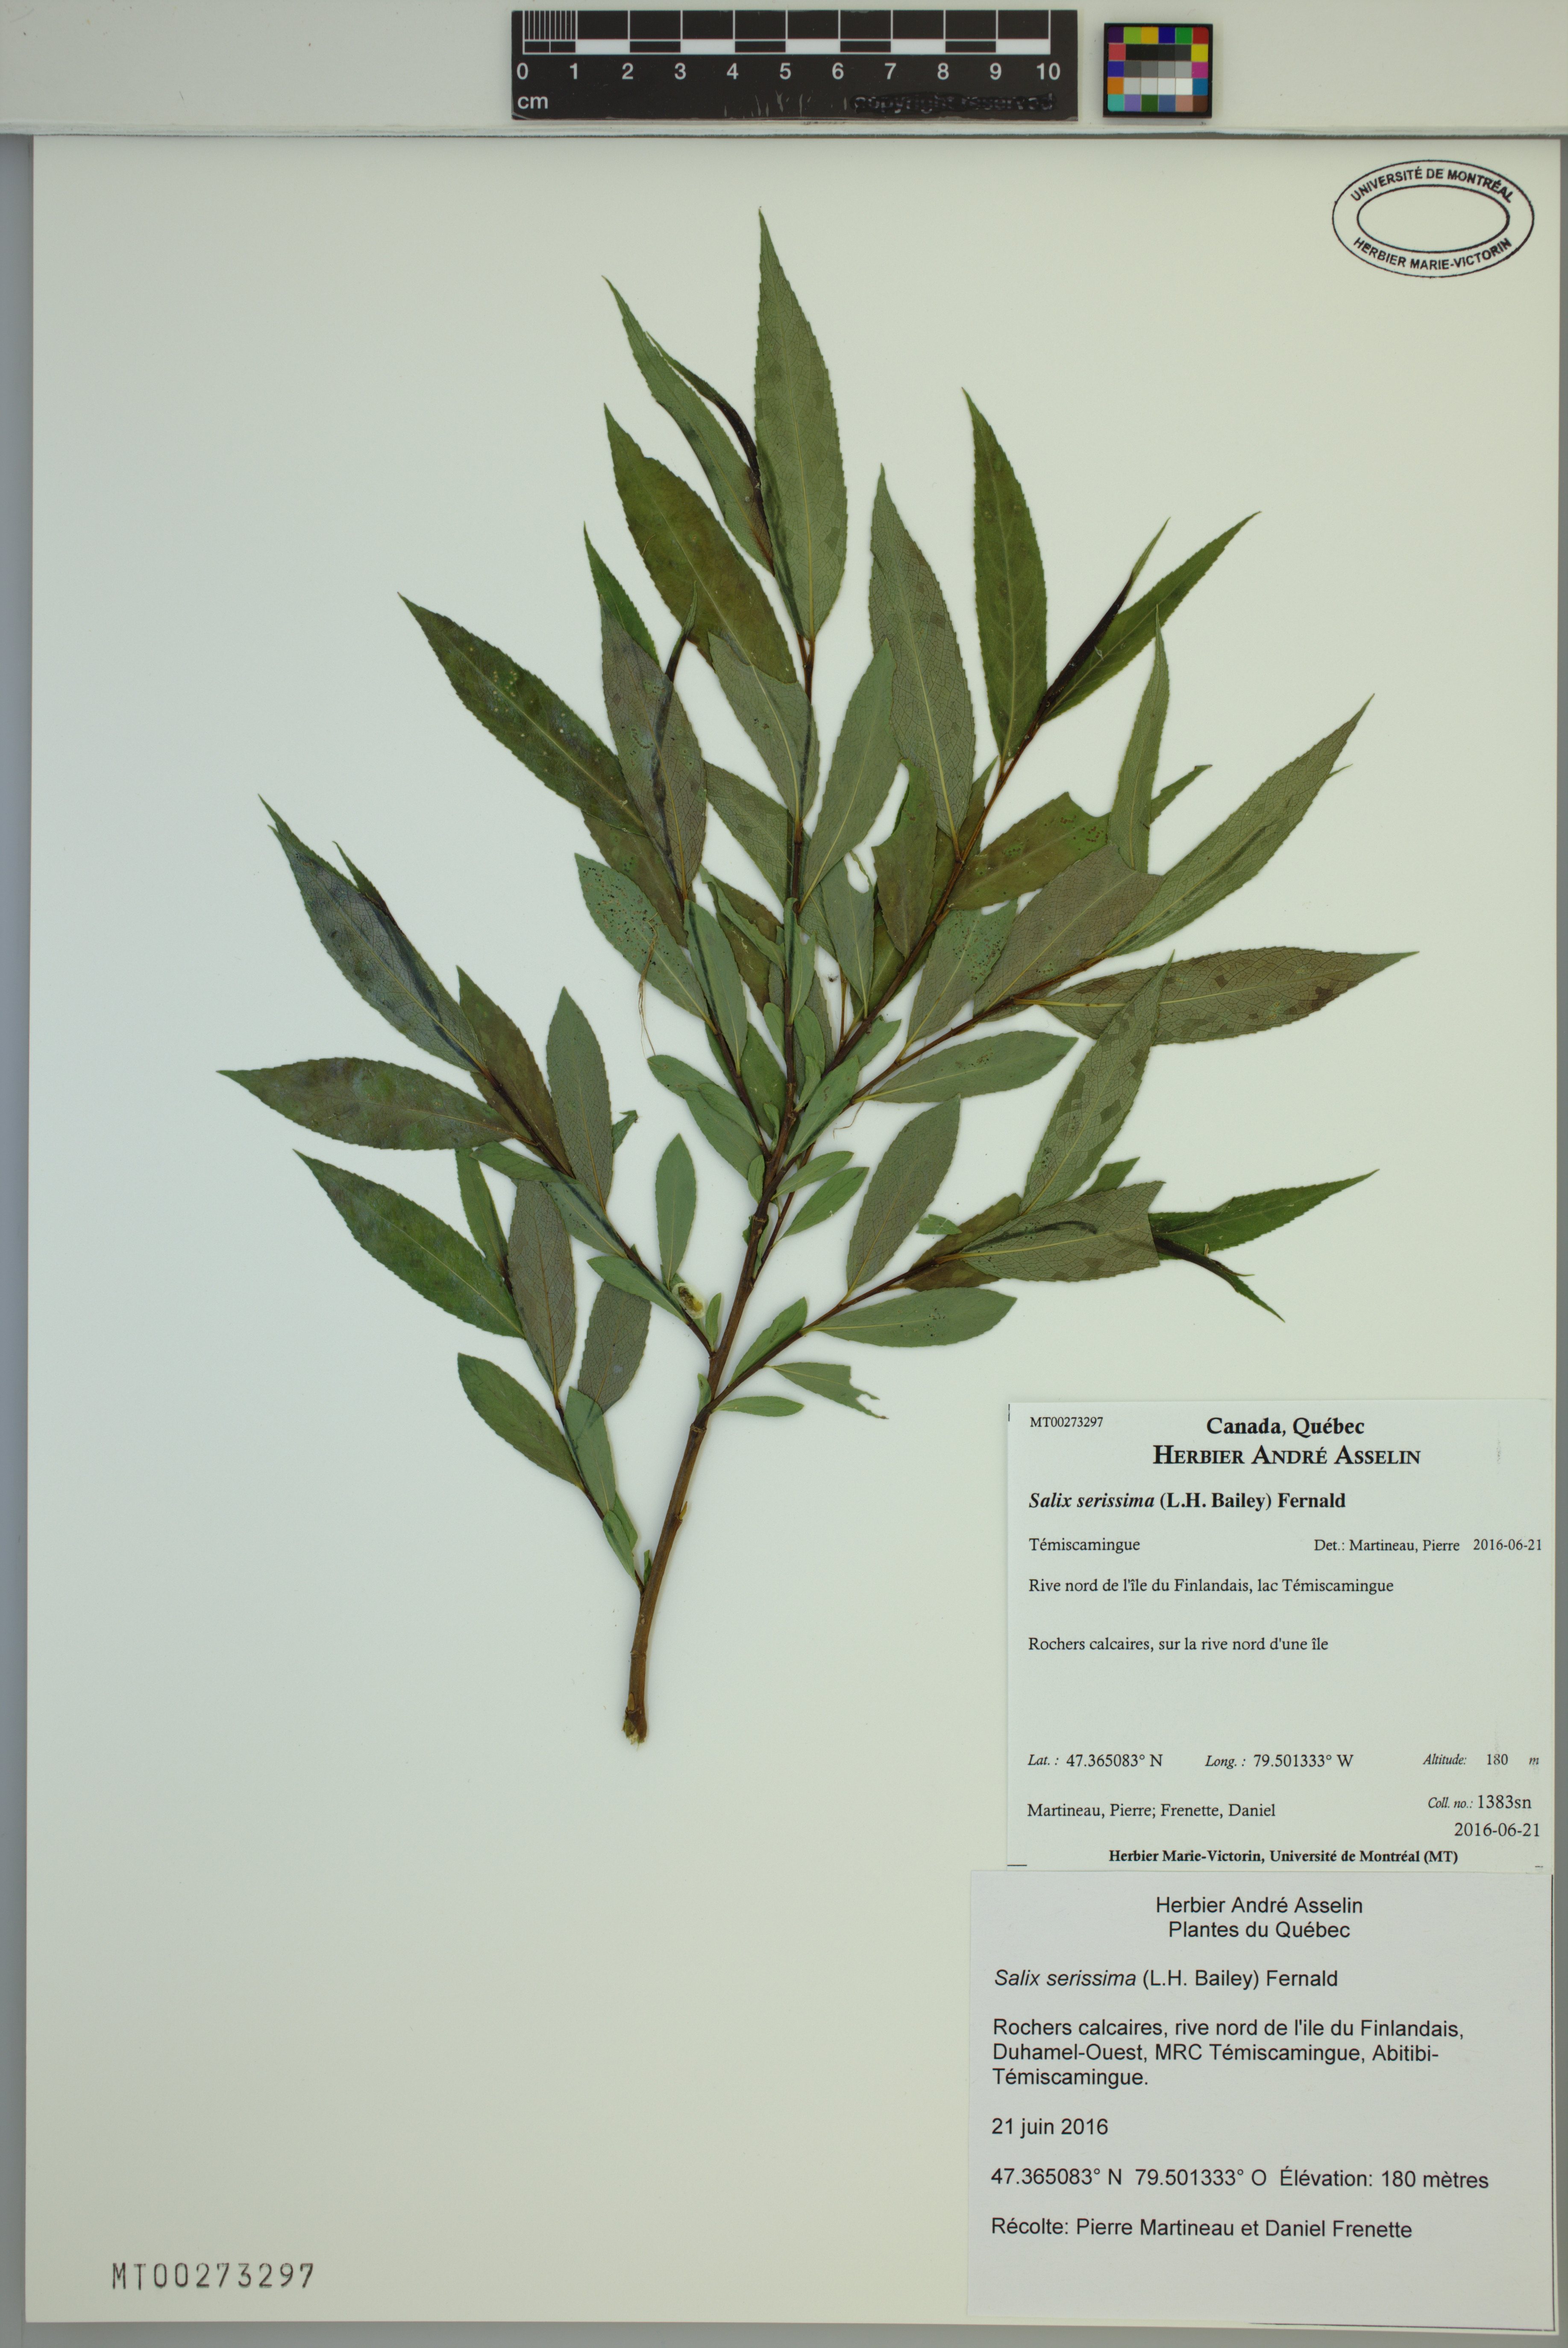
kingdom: Plantae
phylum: Tracheophyta
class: Magnoliopsida
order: Malpighiales
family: Salicaceae
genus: Salix
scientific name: Salix serissima
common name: Autumn willow
